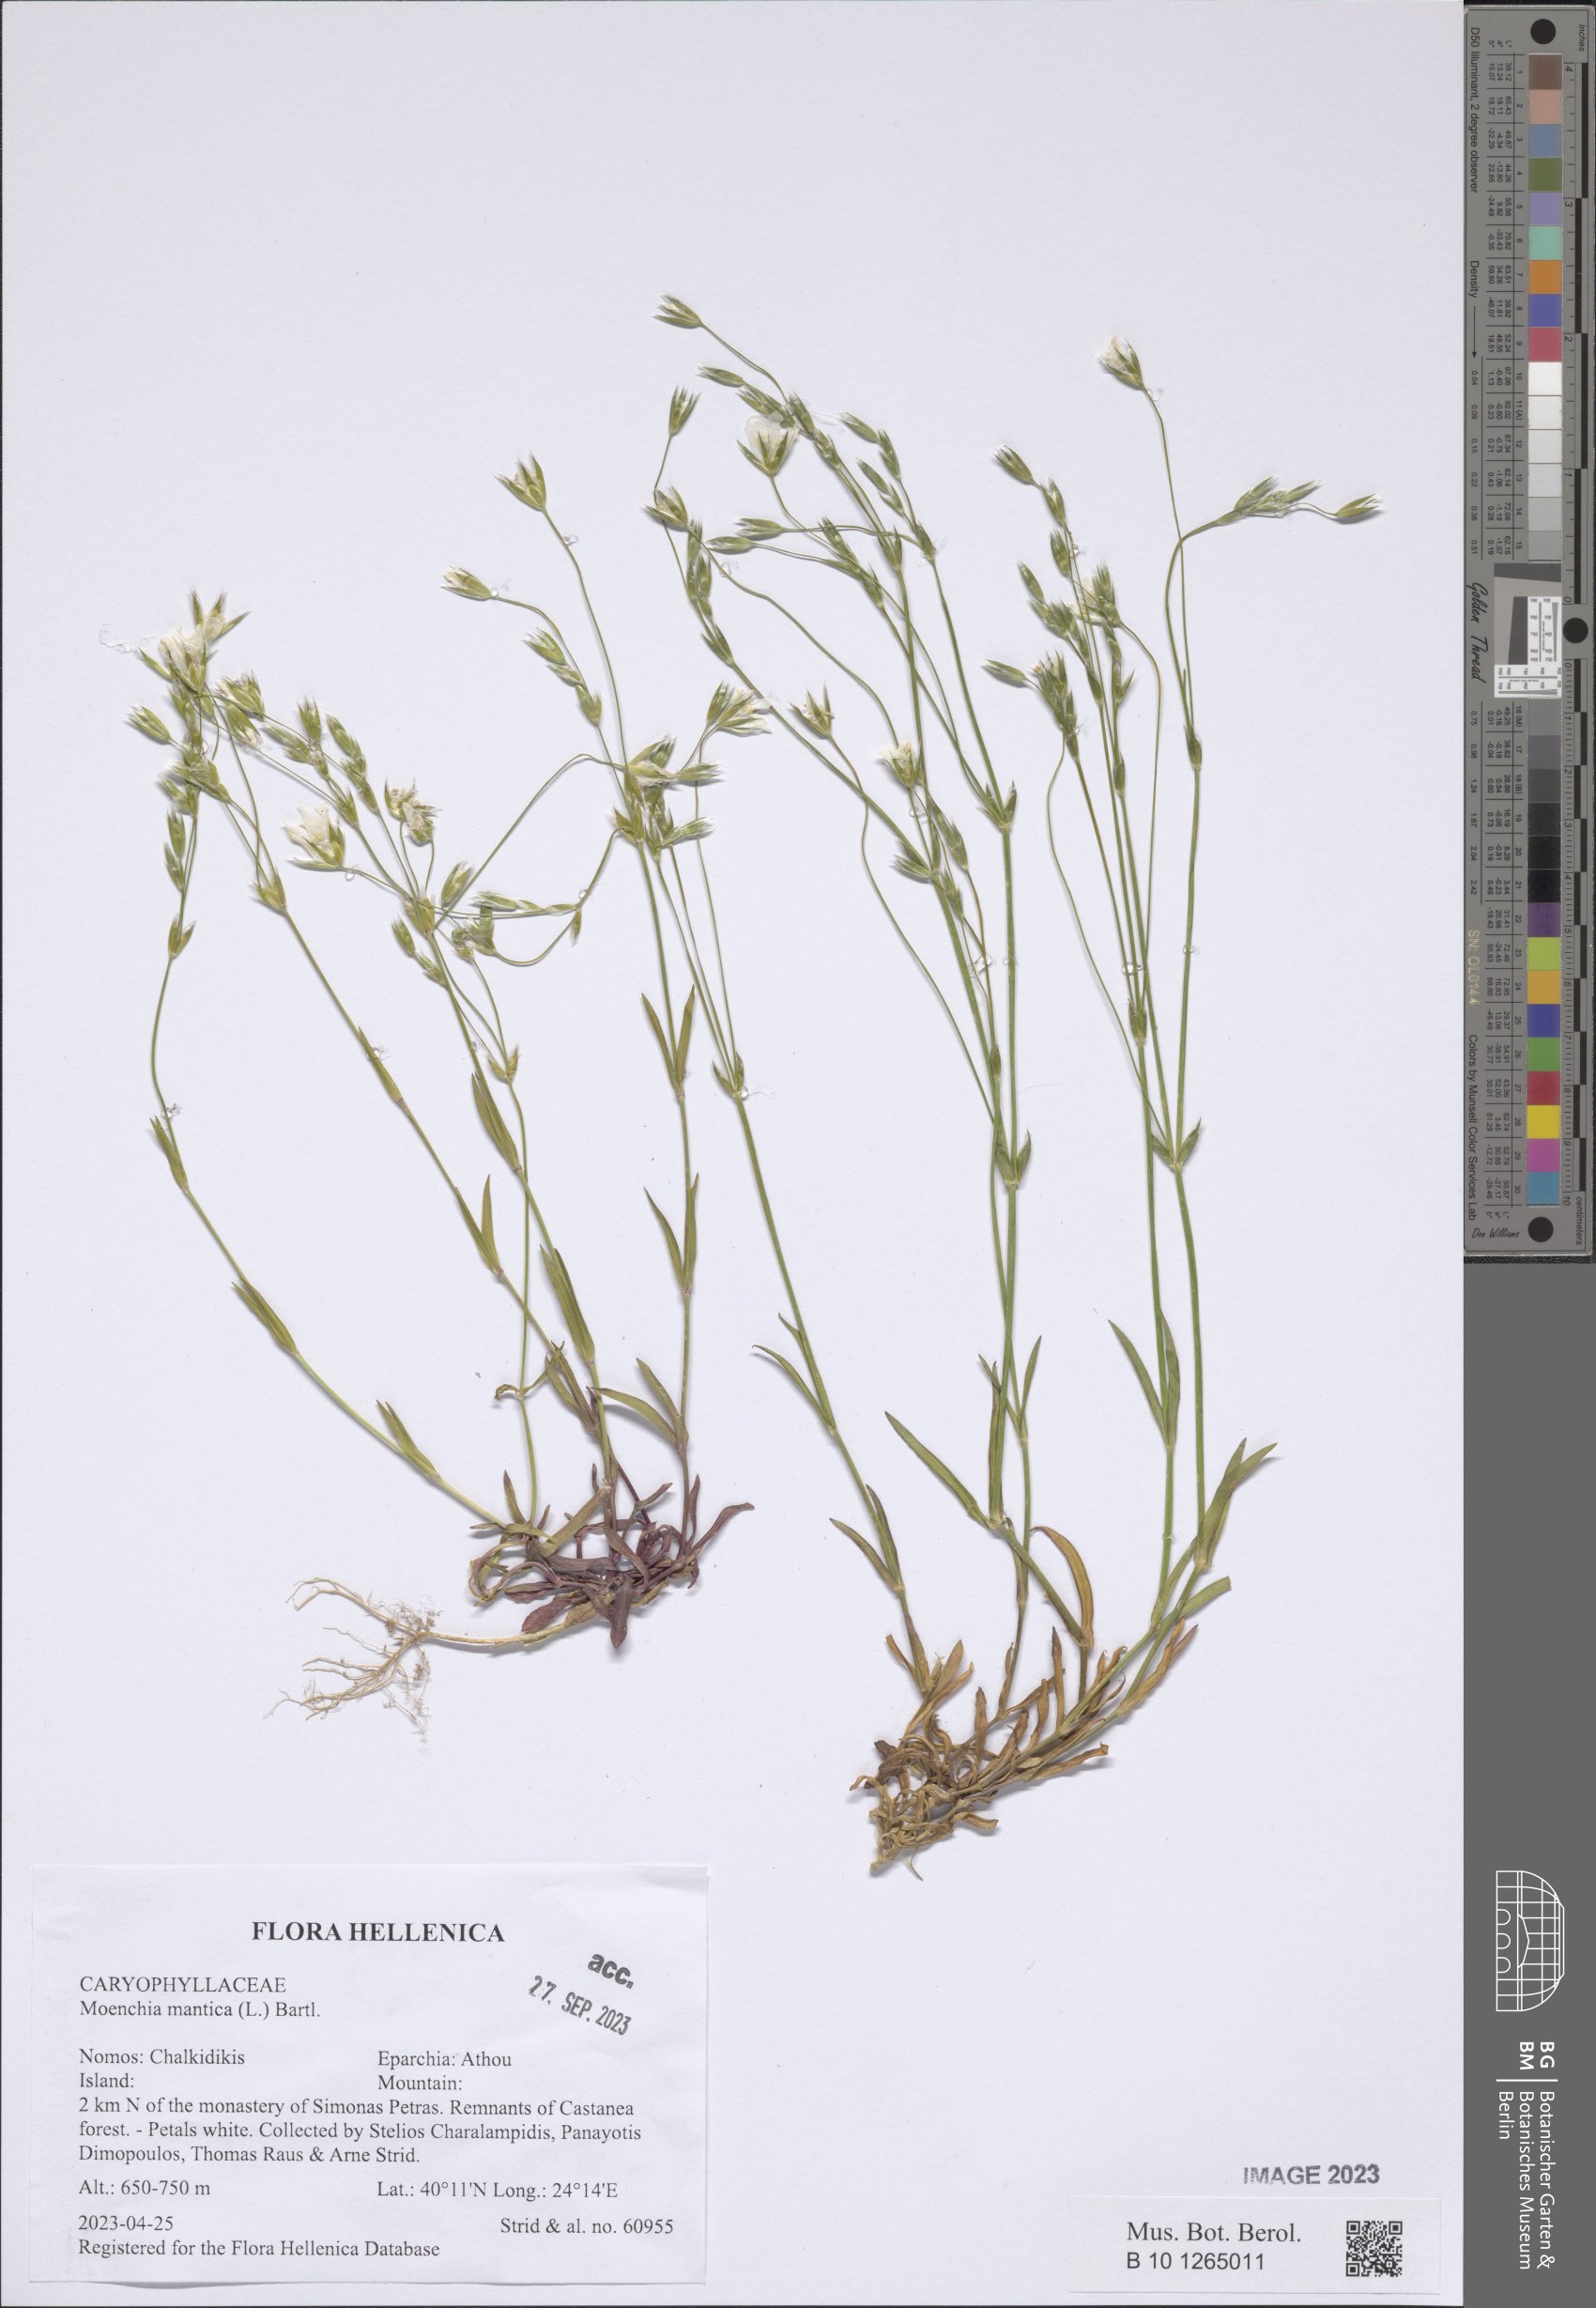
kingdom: Plantae
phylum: Tracheophyta
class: Magnoliopsida
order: Caryophyllales
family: Caryophyllaceae
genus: Moenchia
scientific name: Moenchia mantica
